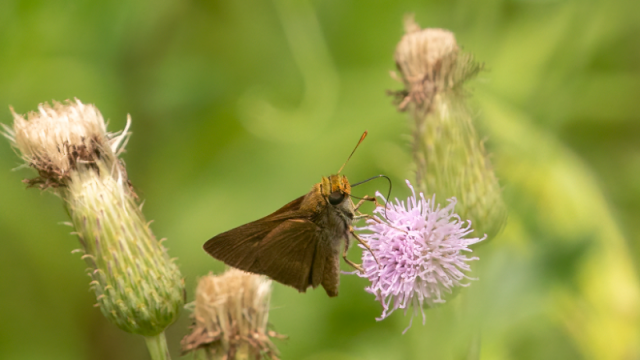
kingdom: Animalia
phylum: Arthropoda
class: Insecta
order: Lepidoptera
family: Hesperiidae
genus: Euphyes
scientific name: Euphyes vestris
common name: Dun Skipper
